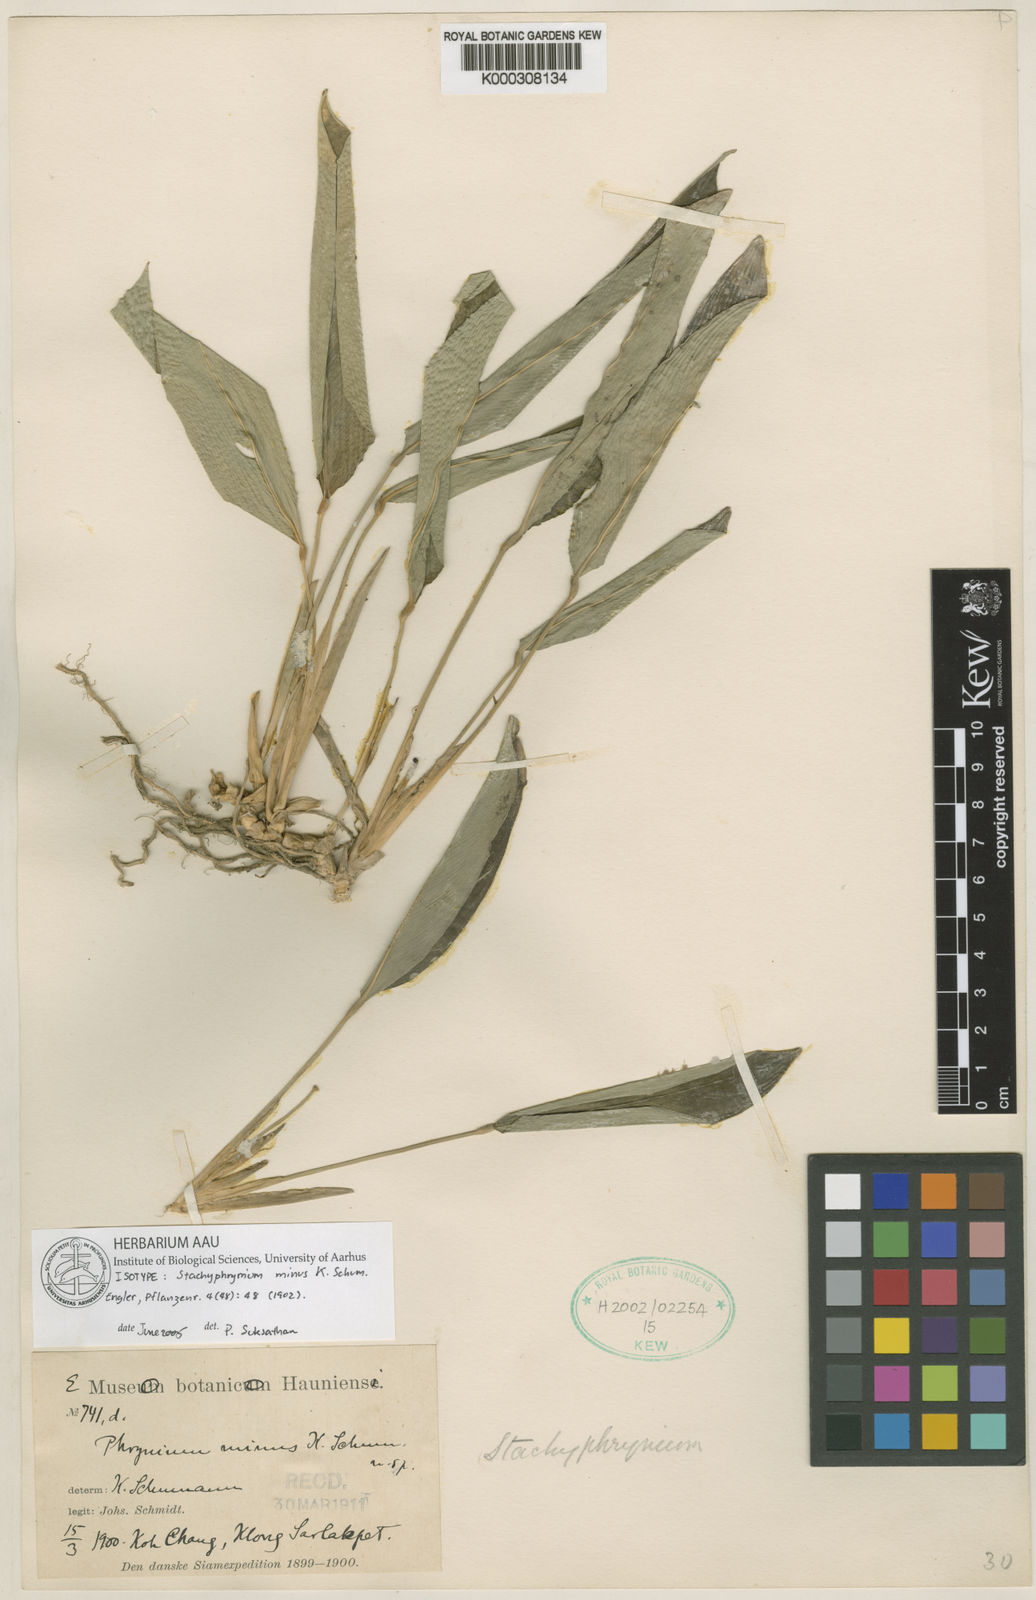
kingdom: Plantae
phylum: Tracheophyta
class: Liliopsida
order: Zingiberales
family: Marantaceae
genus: Phrynium
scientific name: Phrynium parvum
